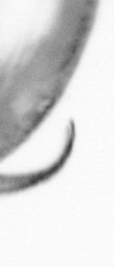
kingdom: Chromista
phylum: Ochrophyta
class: Bacillariophyceae
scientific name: Bacillariophyceae
